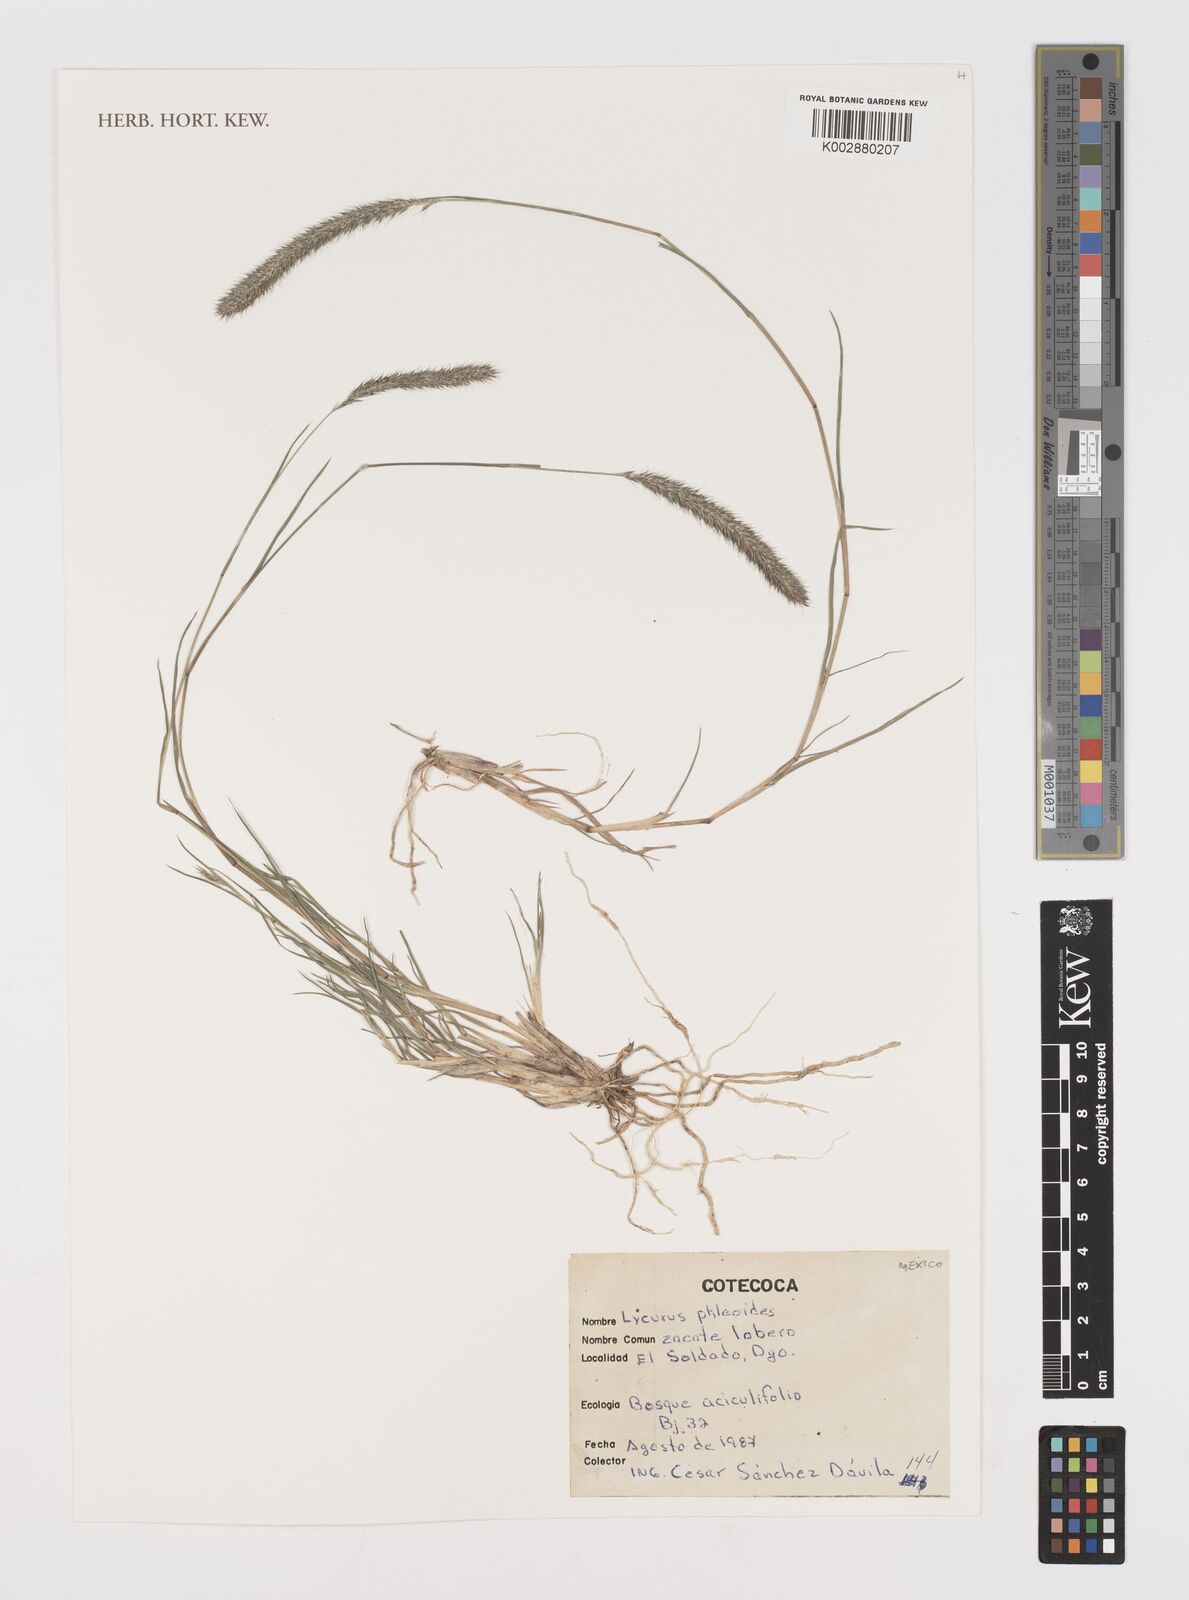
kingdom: Plantae
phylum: Tracheophyta
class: Liliopsida
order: Poales
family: Poaceae
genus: Muhlenbergia
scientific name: Muhlenbergia phleoides
